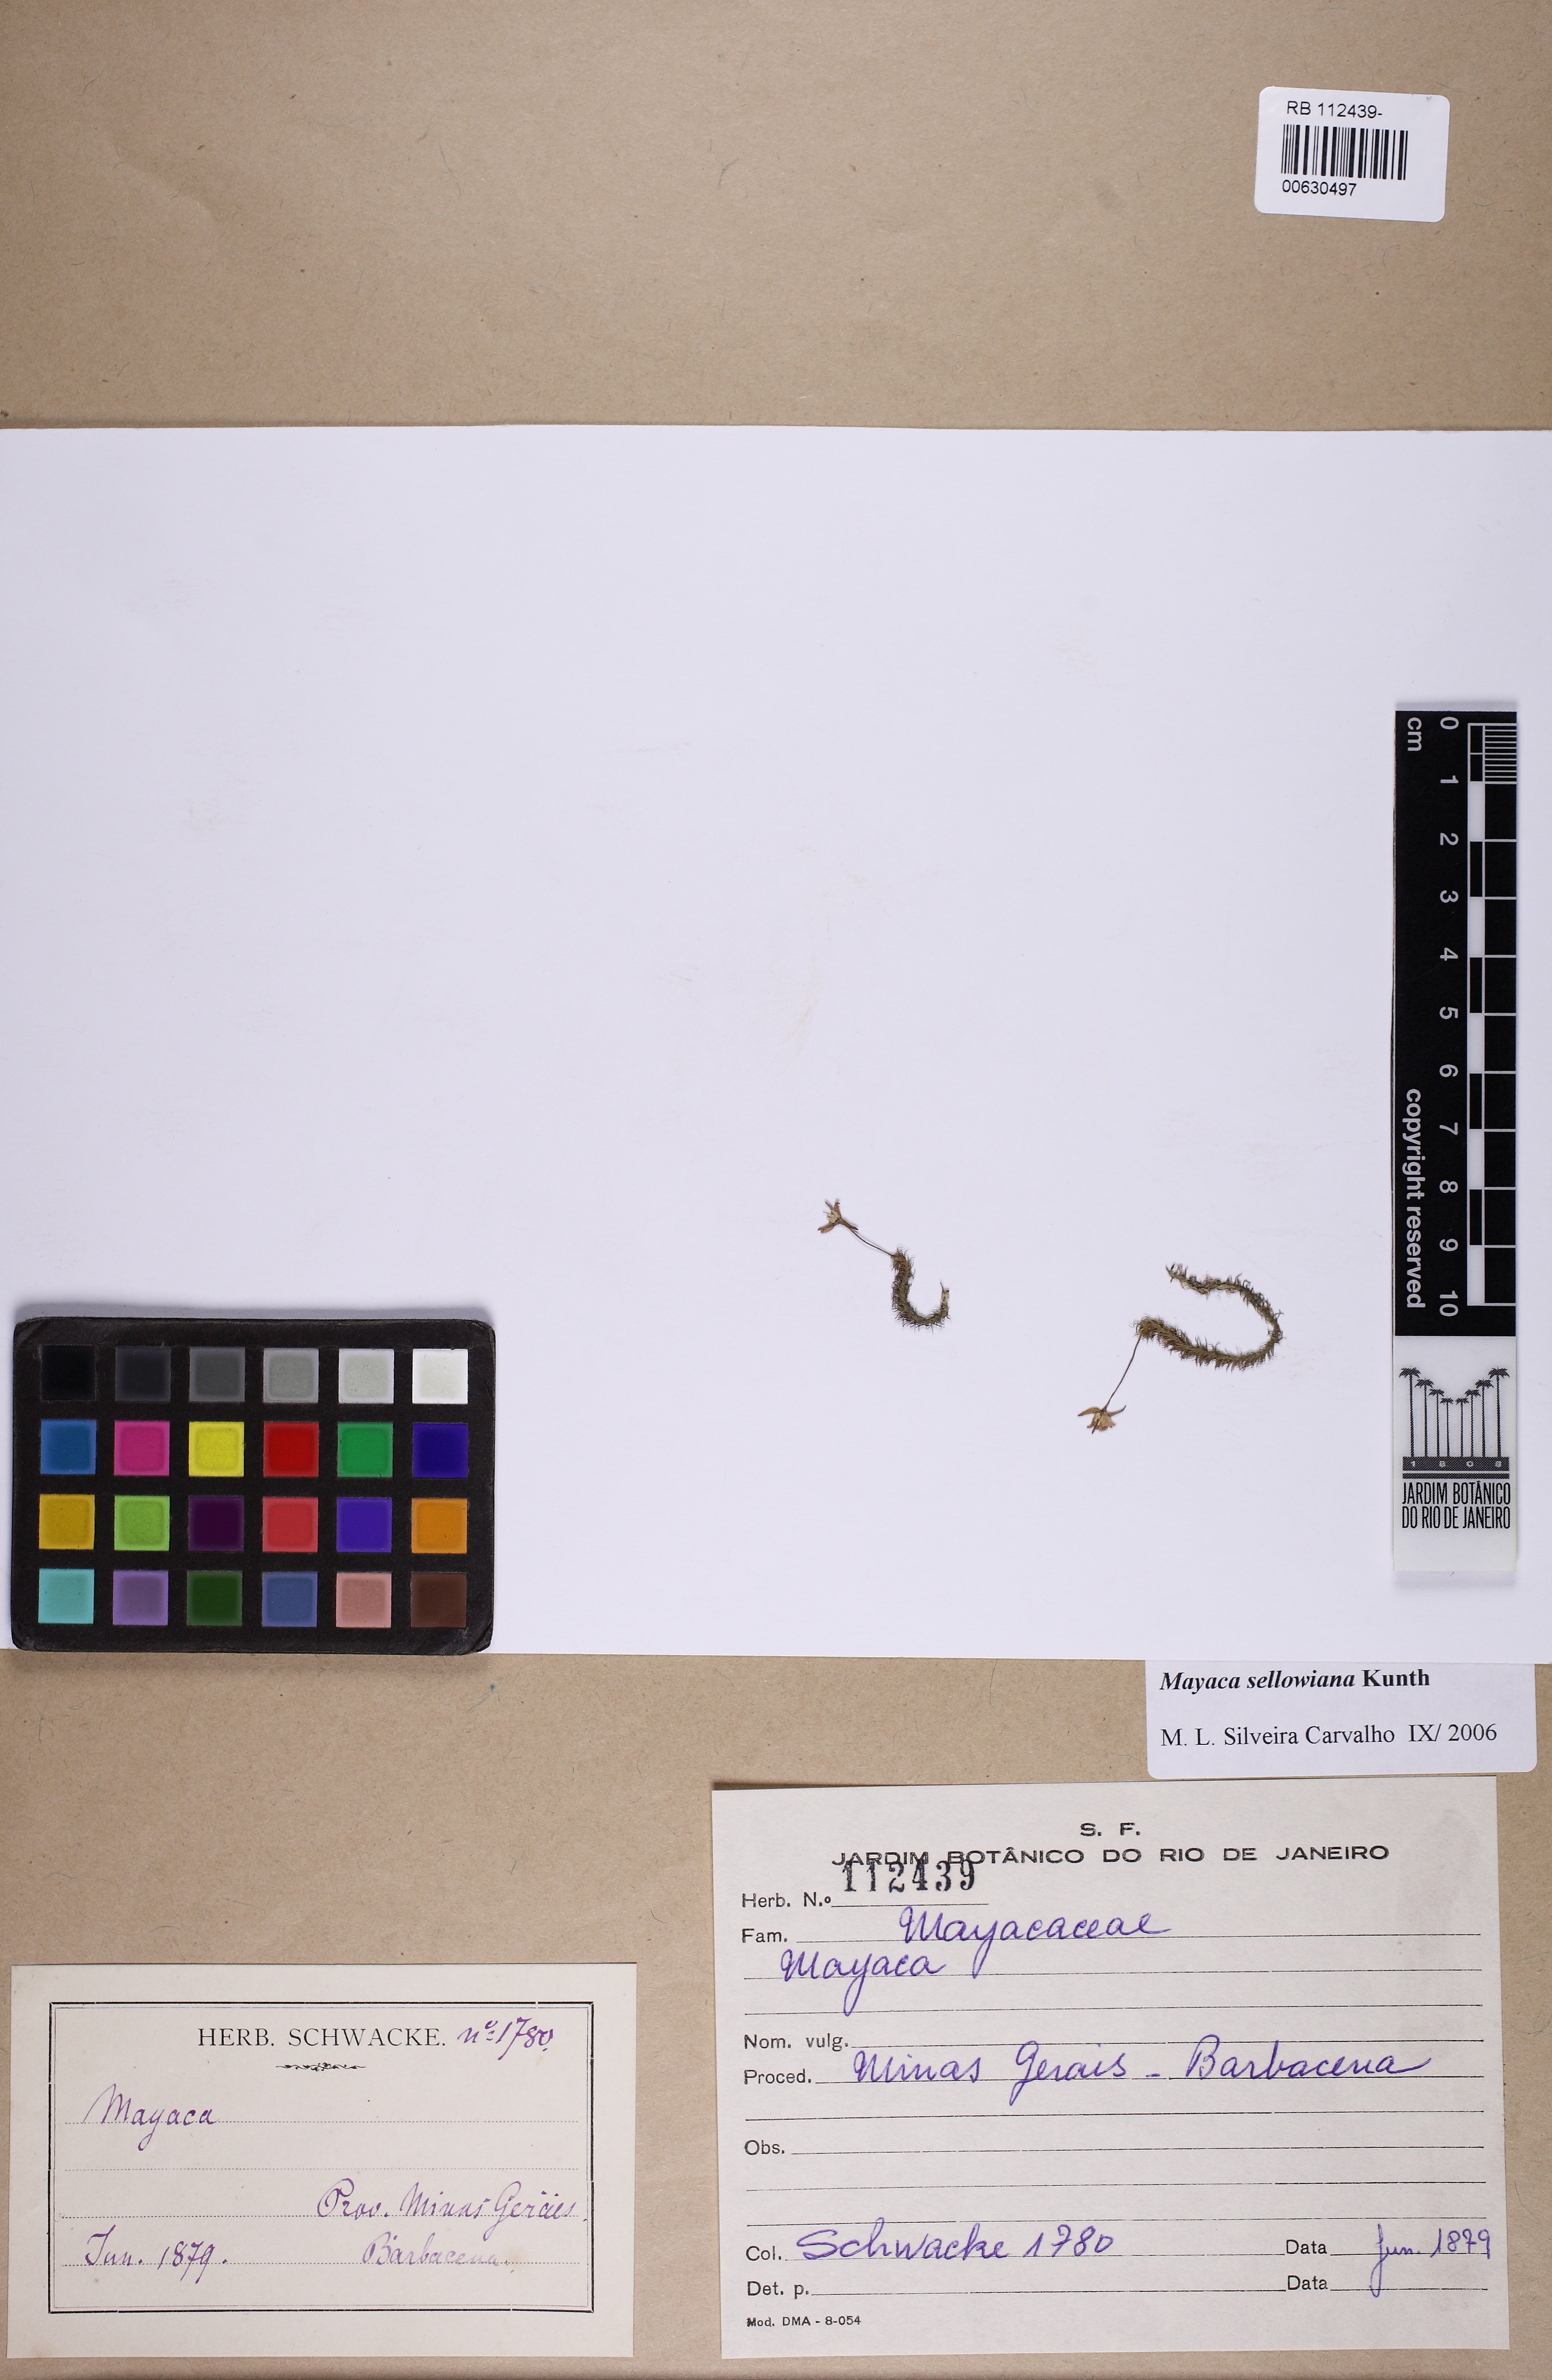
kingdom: Plantae
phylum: Tracheophyta
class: Liliopsida
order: Poales
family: Mayacaceae
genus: Mayaca
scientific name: Mayaca sellowiana
